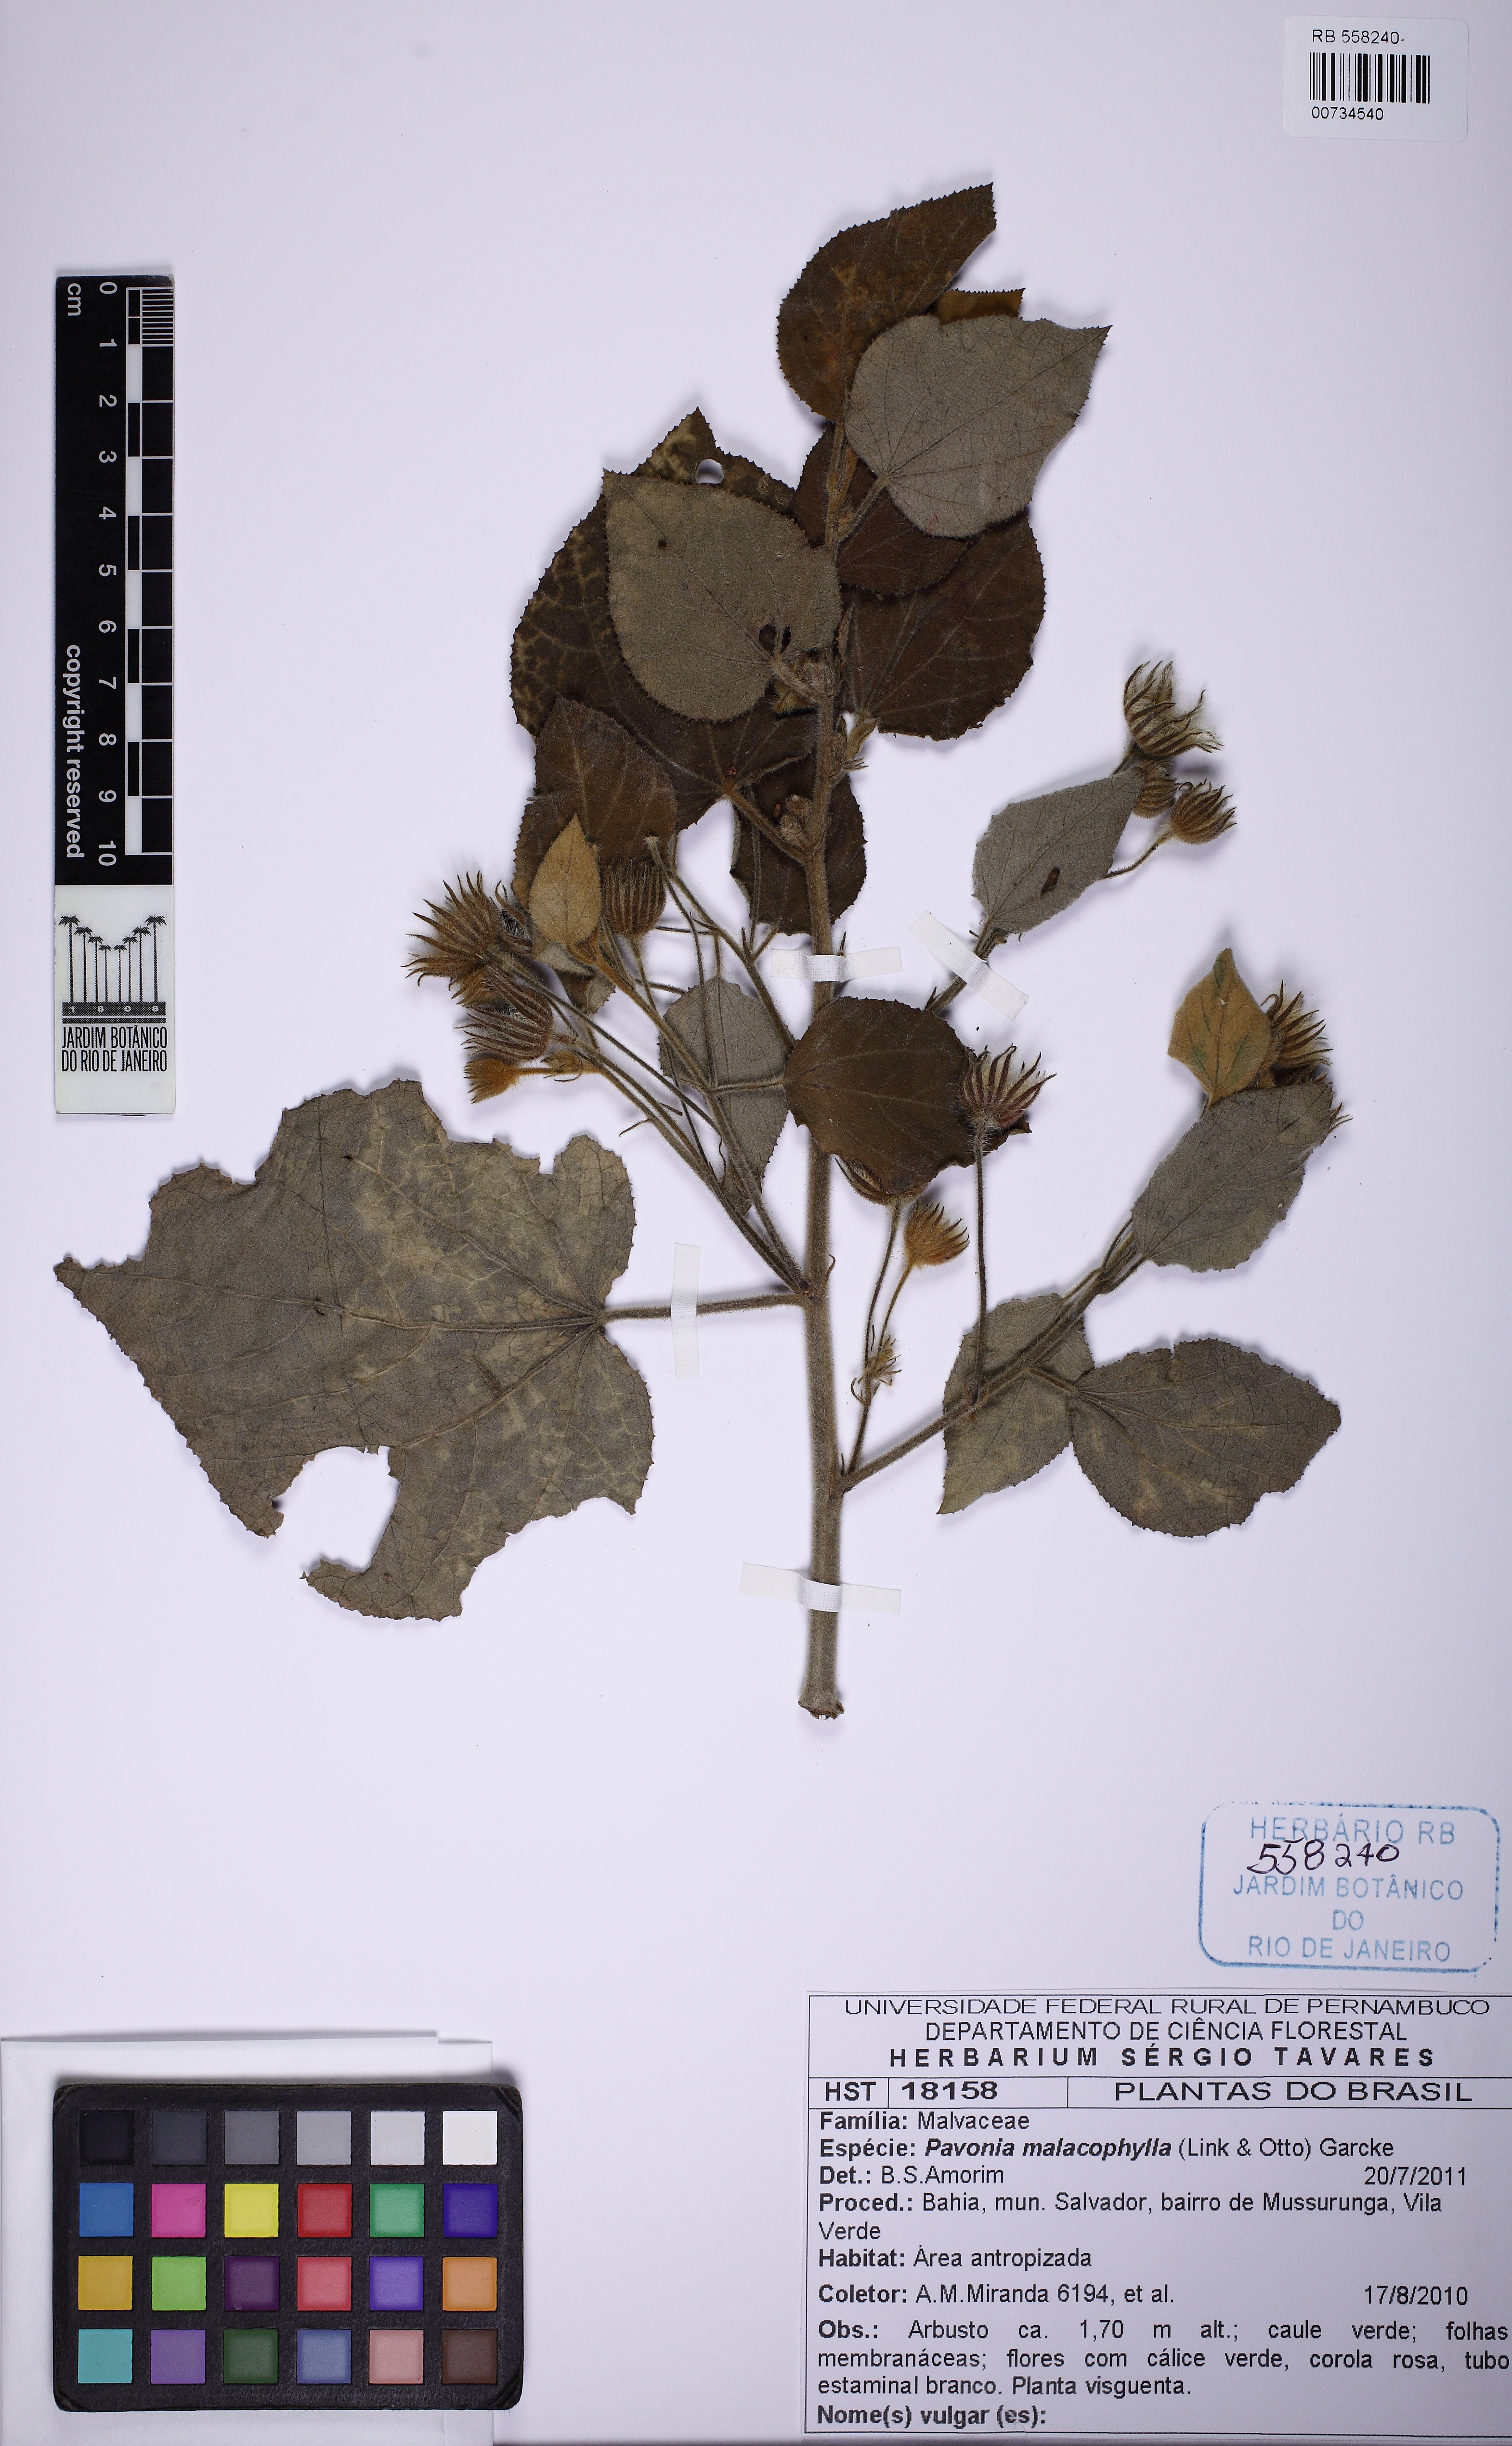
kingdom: Plantae
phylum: Tracheophyta
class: Magnoliopsida
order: Malvales
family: Malvaceae
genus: Pavonia
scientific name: Pavonia malacophylla
